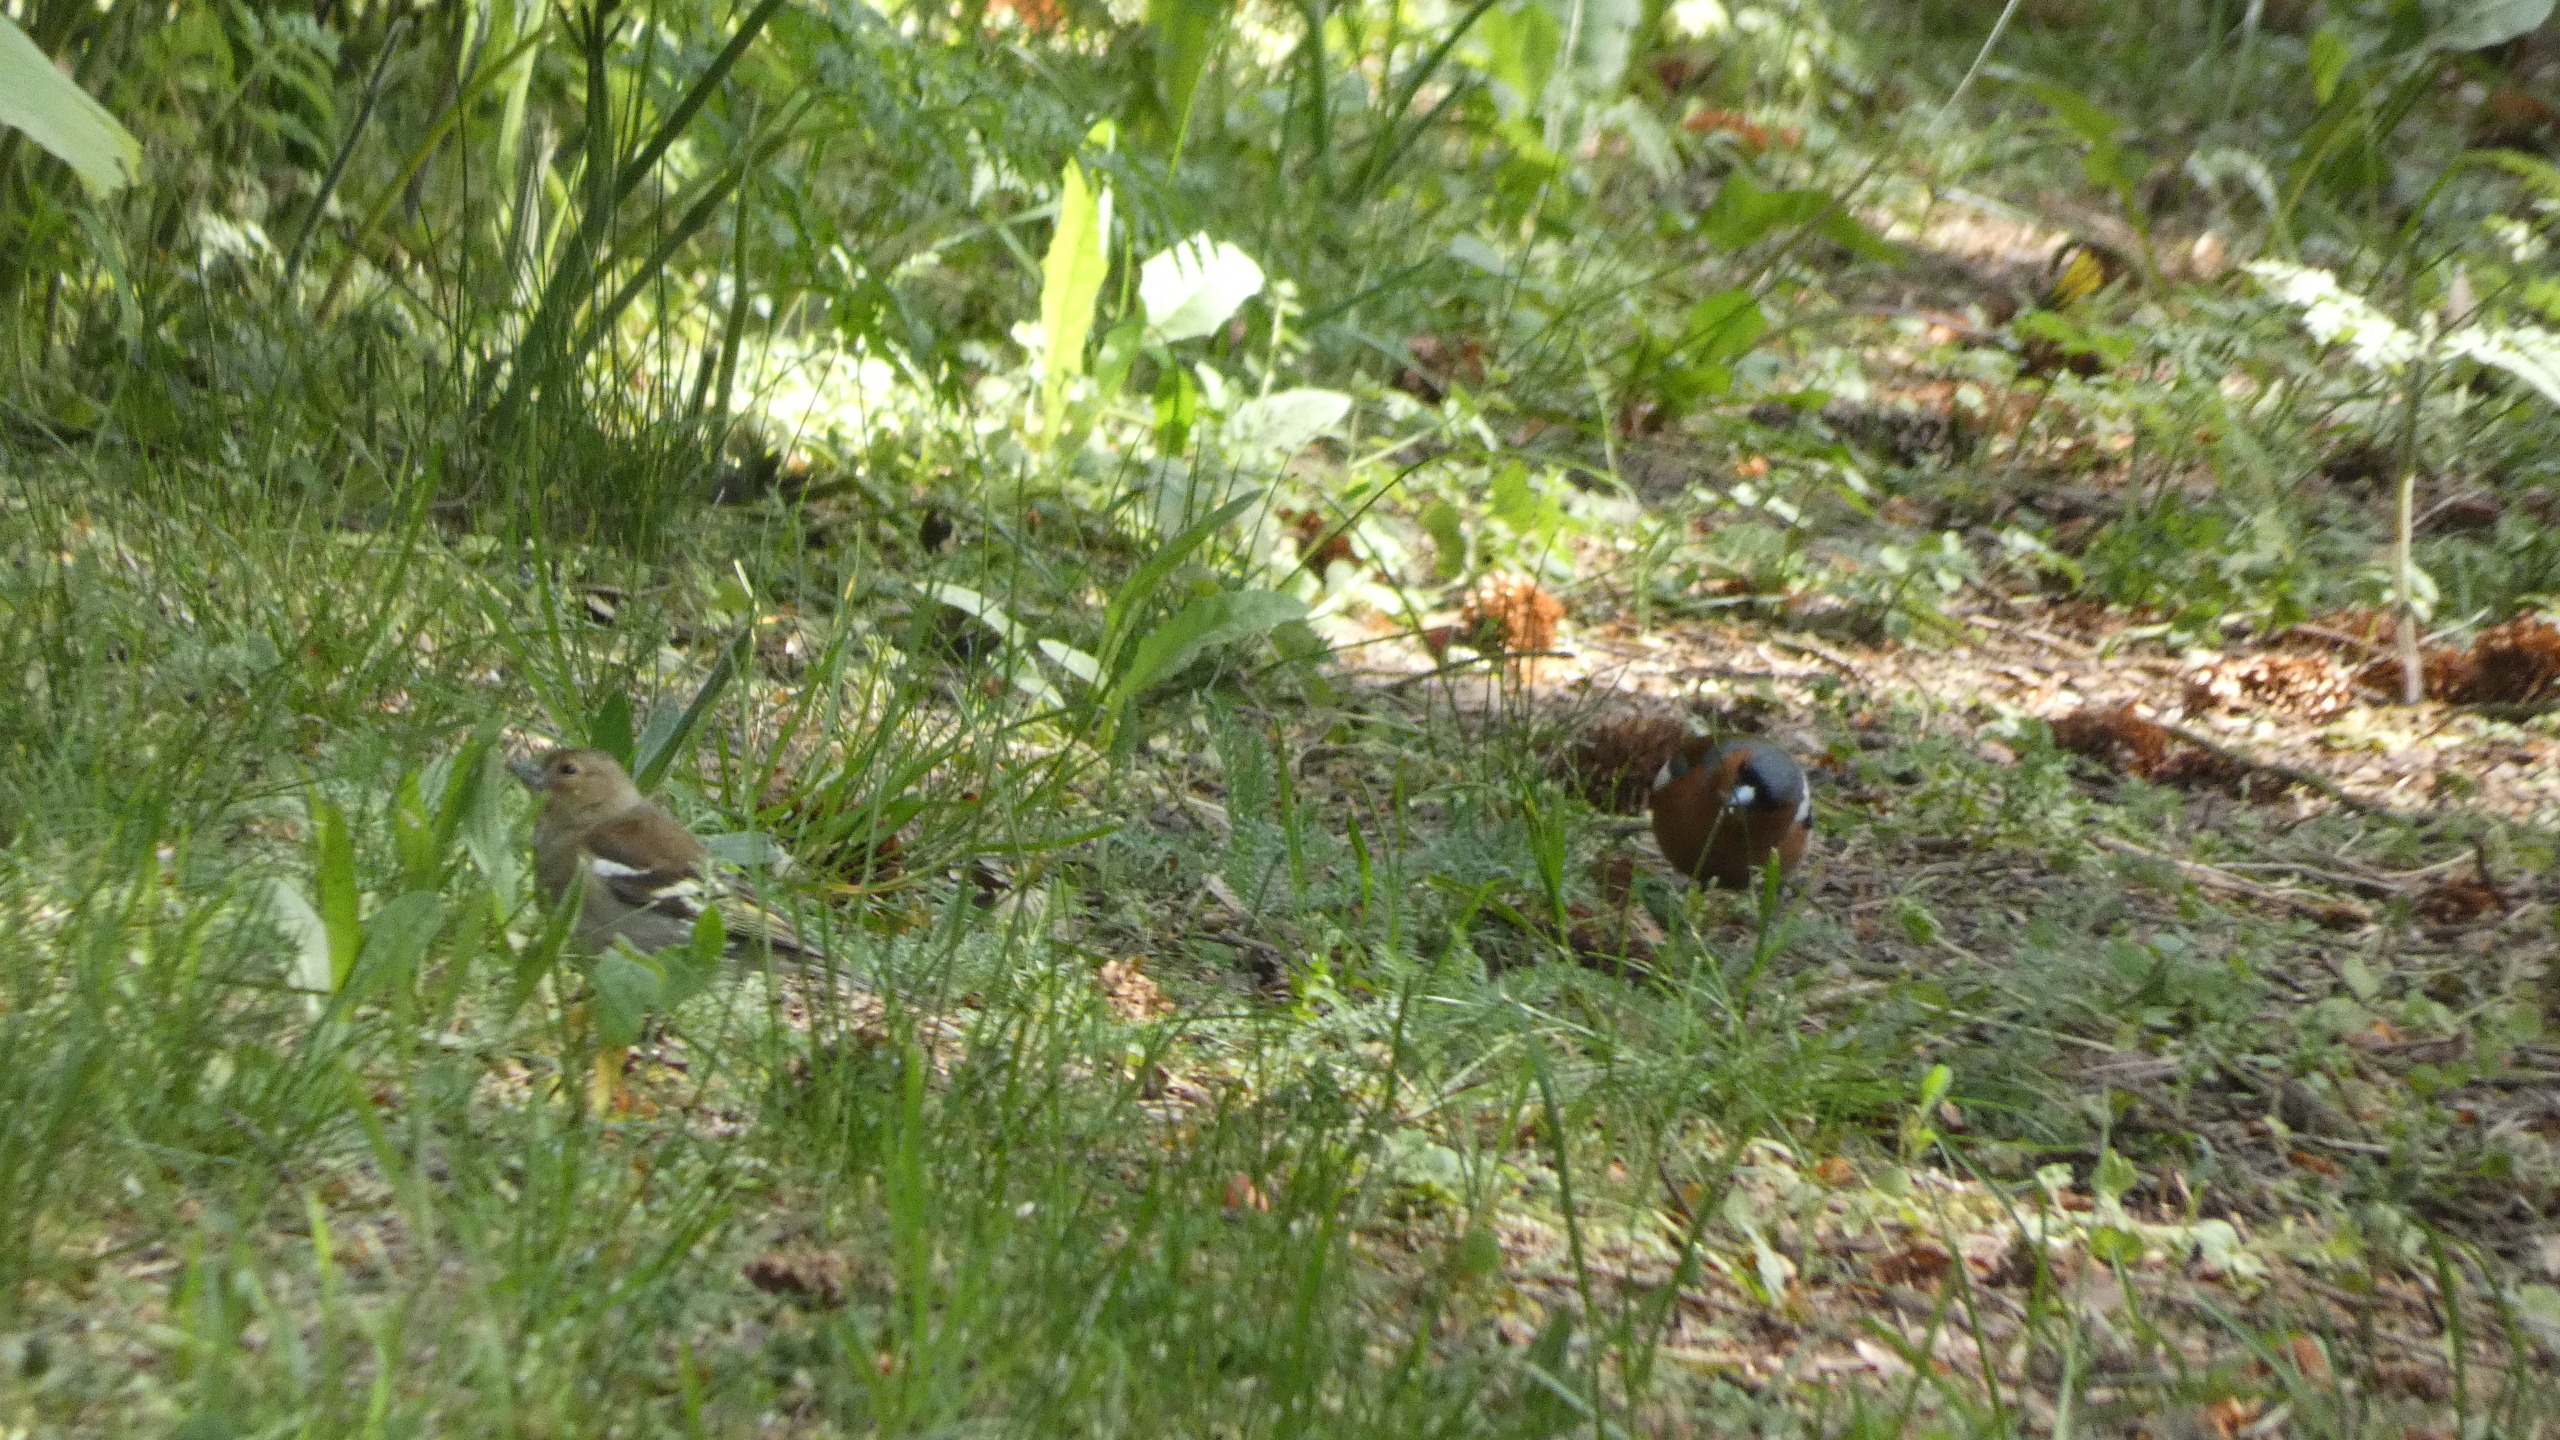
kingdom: Animalia
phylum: Chordata
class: Aves
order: Passeriformes
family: Fringillidae
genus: Fringilla
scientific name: Fringilla coelebs
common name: Bogfinke
